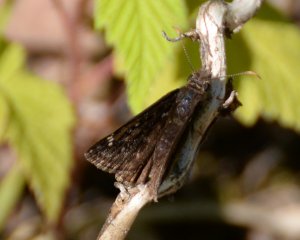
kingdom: Animalia
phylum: Arthropoda
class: Insecta
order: Lepidoptera
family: Hesperiidae
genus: Gesta
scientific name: Gesta
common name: Juvenal's Duskywing
